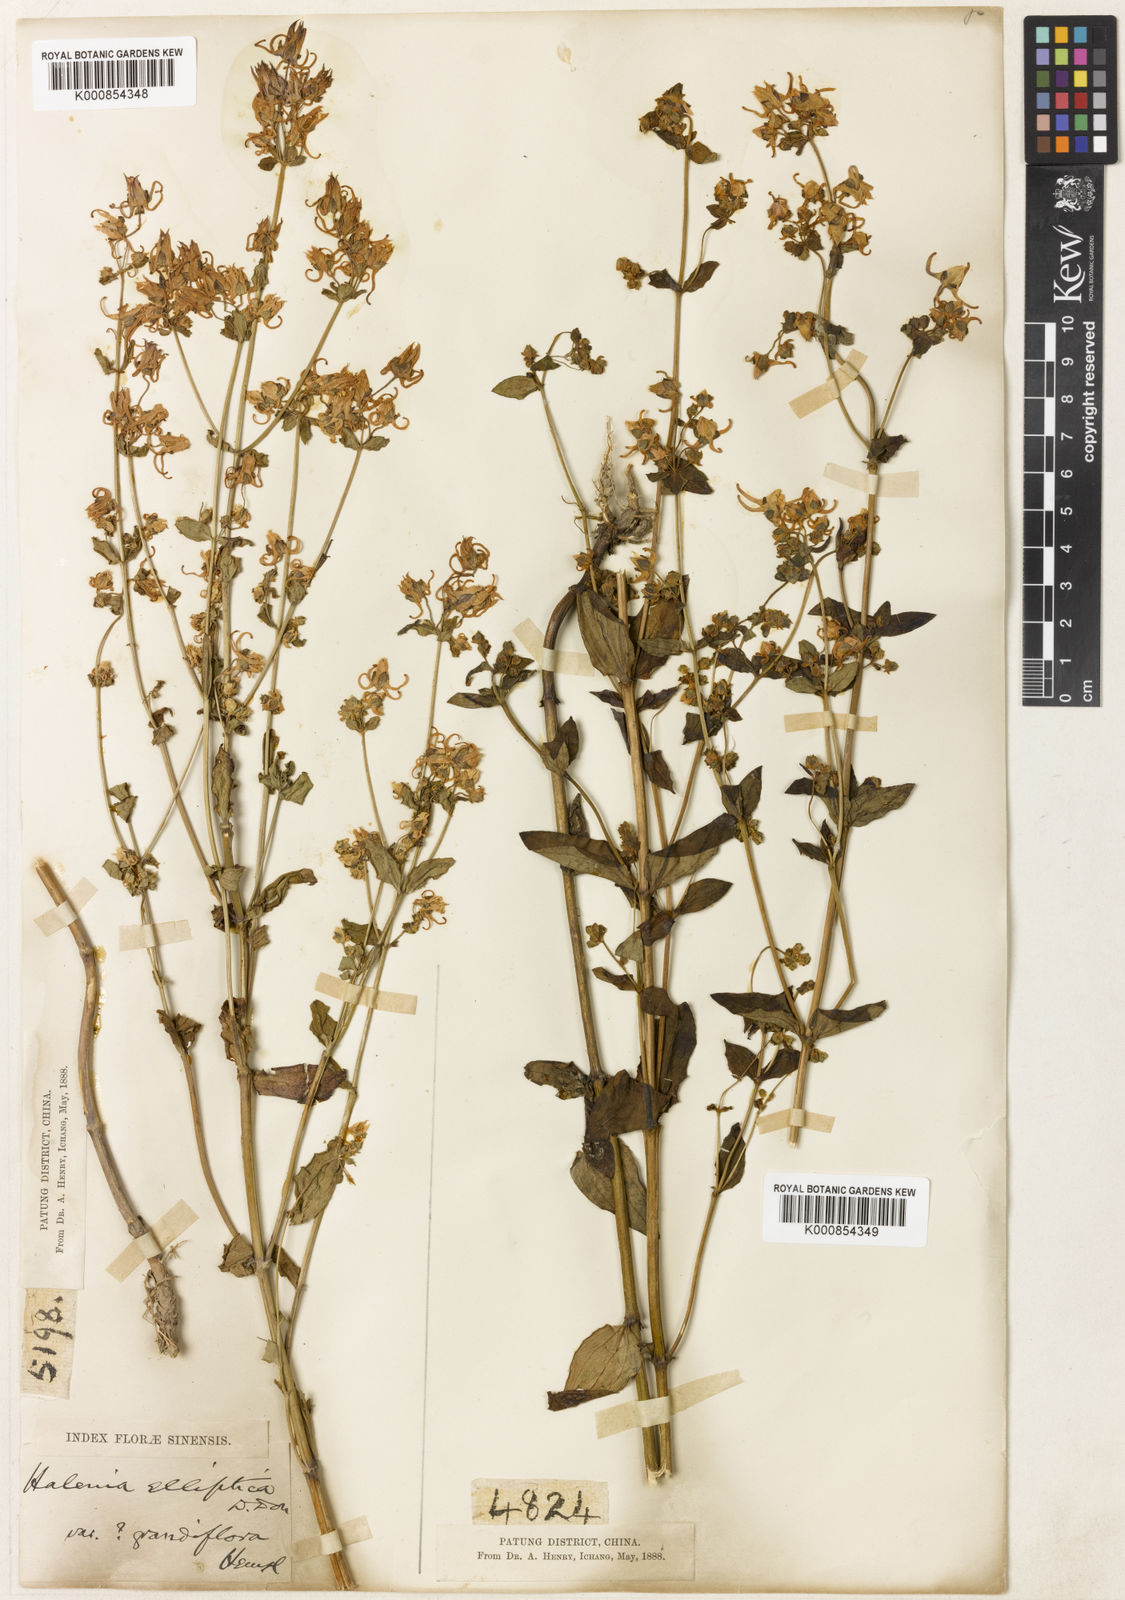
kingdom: Plantae
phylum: Tracheophyta
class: Magnoliopsida
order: Gentianales
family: Gentianaceae
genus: Halenia
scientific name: Halenia elliptica
